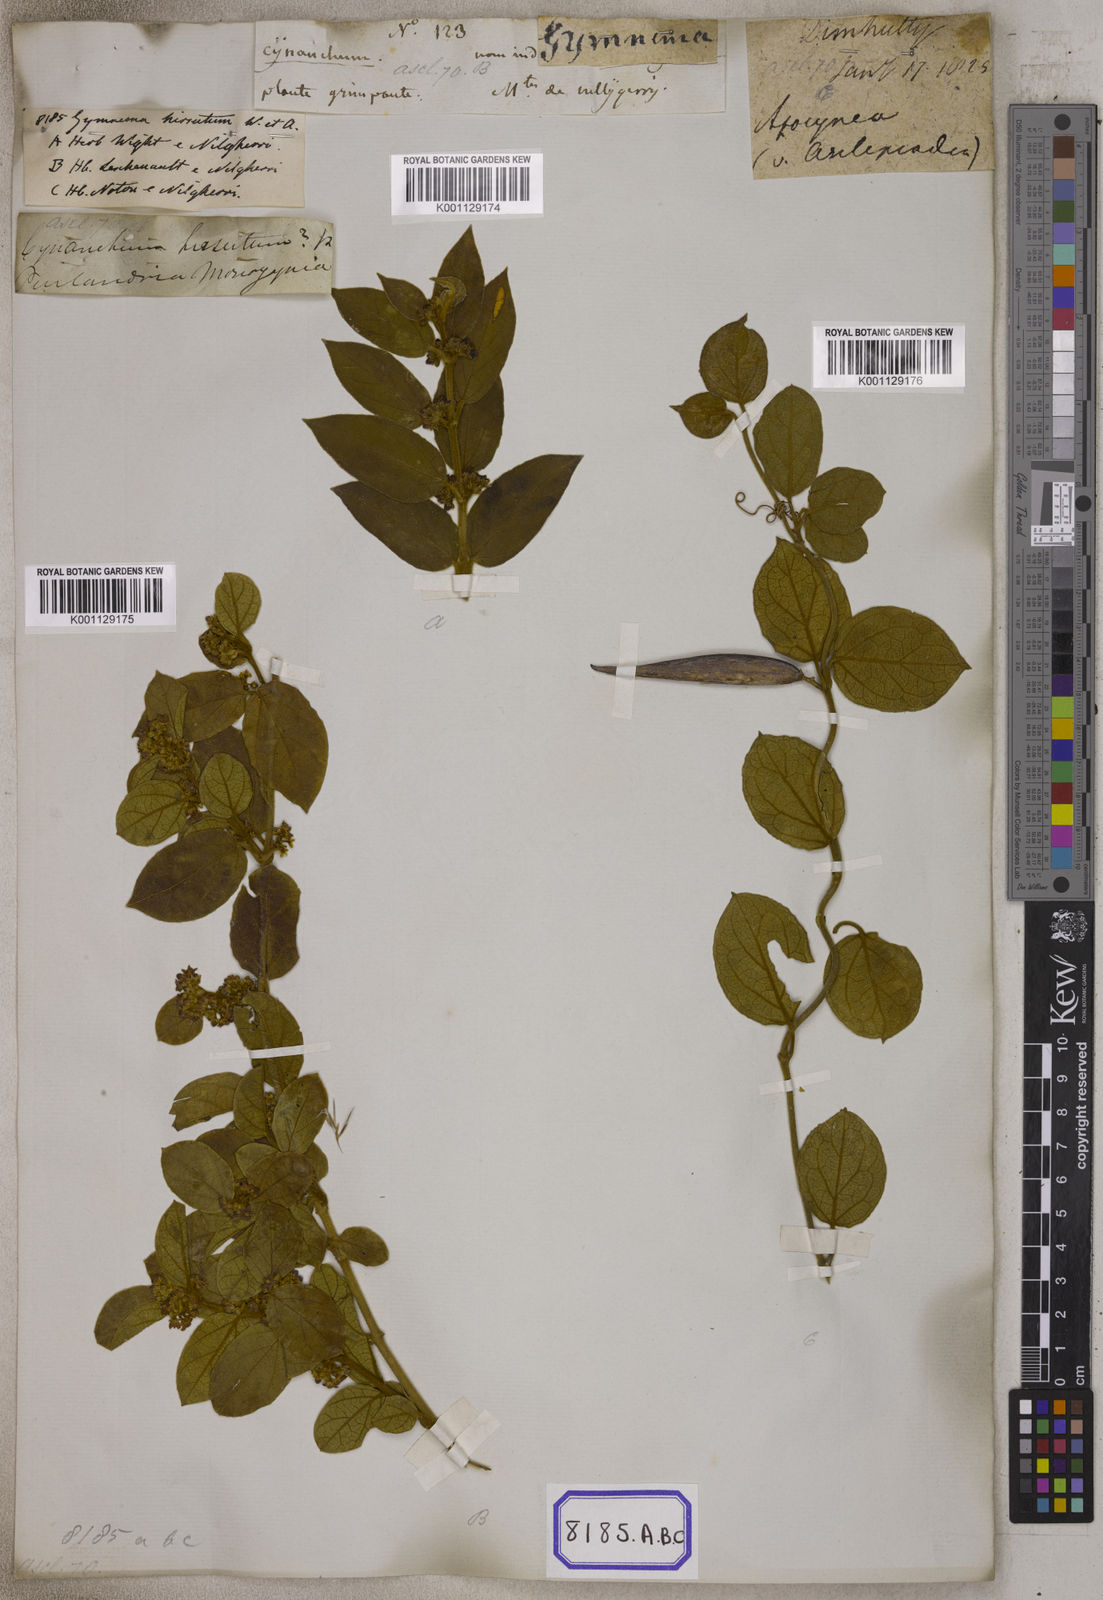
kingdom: Plantae
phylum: Tracheophyta
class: Magnoliopsida
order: Gentianales
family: Apocynaceae
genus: Gymnema
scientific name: Gymnema decaisneanum
